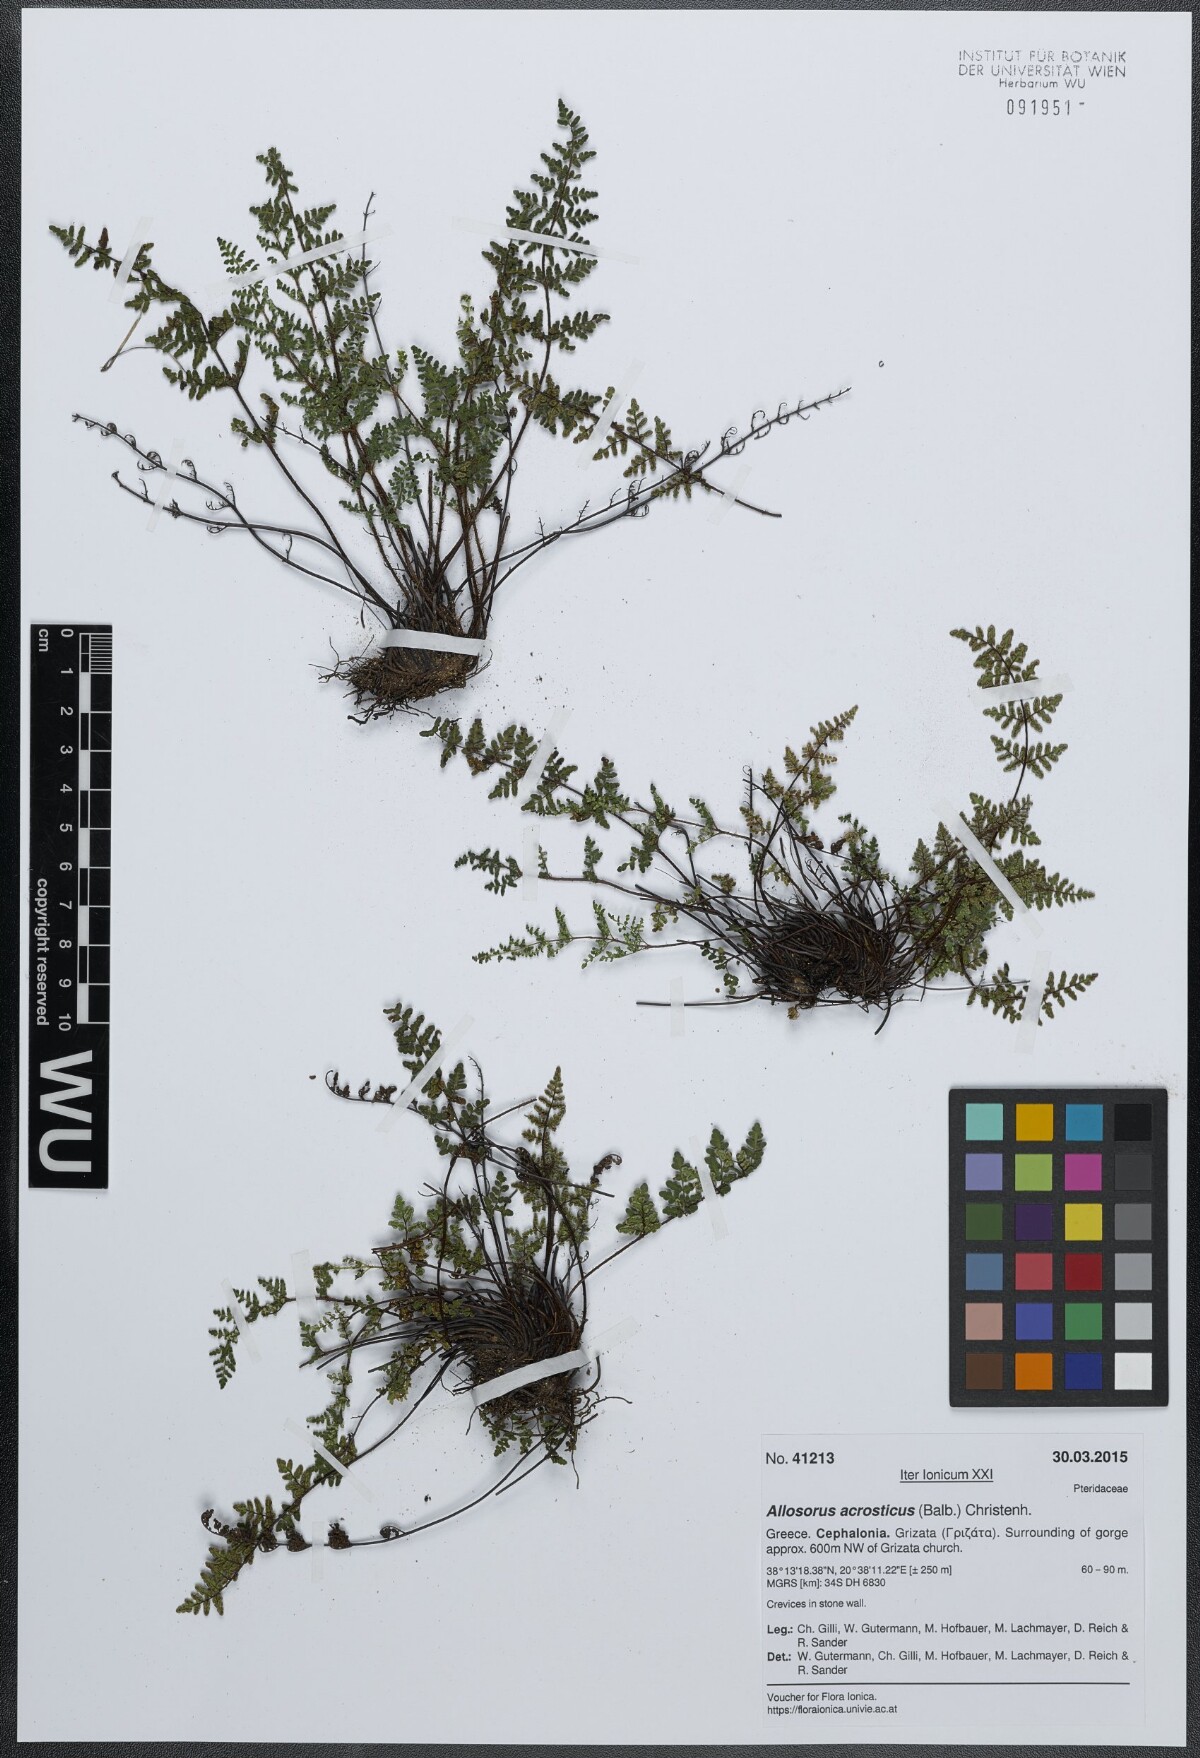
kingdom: Plantae
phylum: Tracheophyta
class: Polypodiopsida
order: Polypodiales
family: Pteridaceae
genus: Oeosporangium
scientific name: Oeosporangium pteridioides
